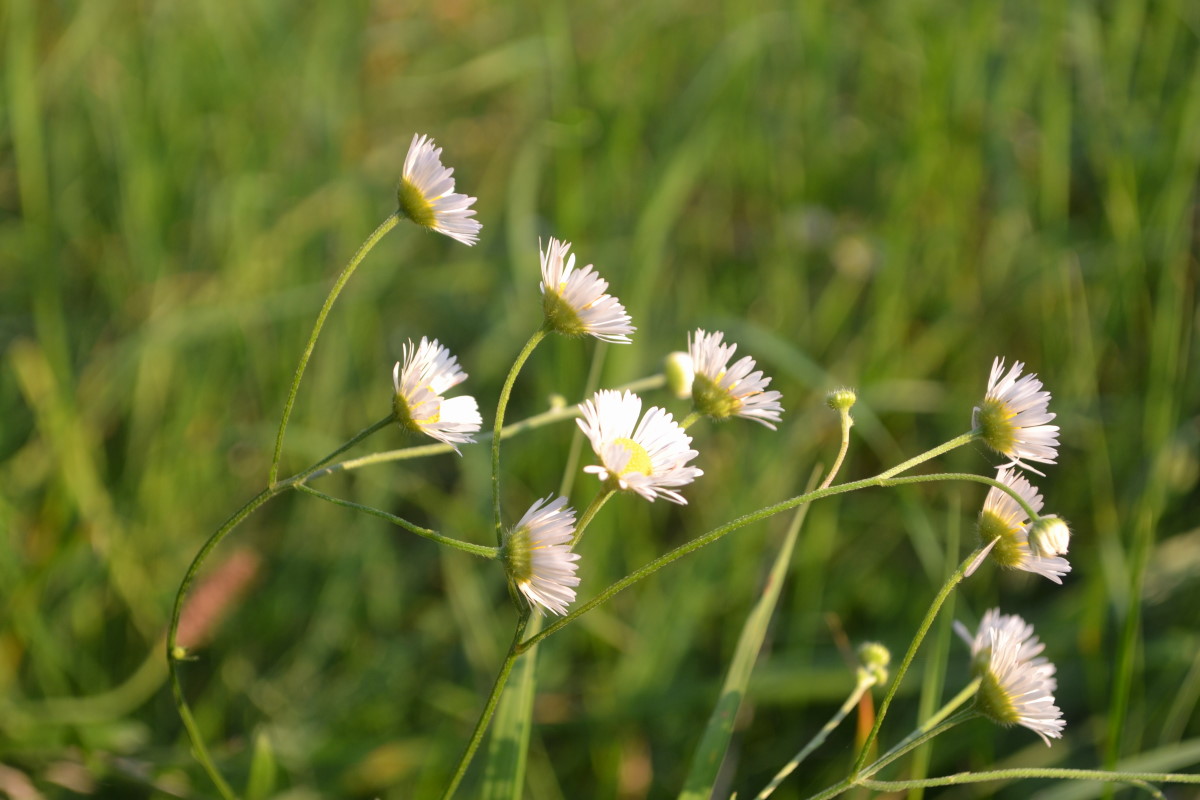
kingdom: Plantae
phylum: Tracheophyta
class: Magnoliopsida
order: Asterales
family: Asteraceae
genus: Erigeron
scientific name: Erigeron annuus
